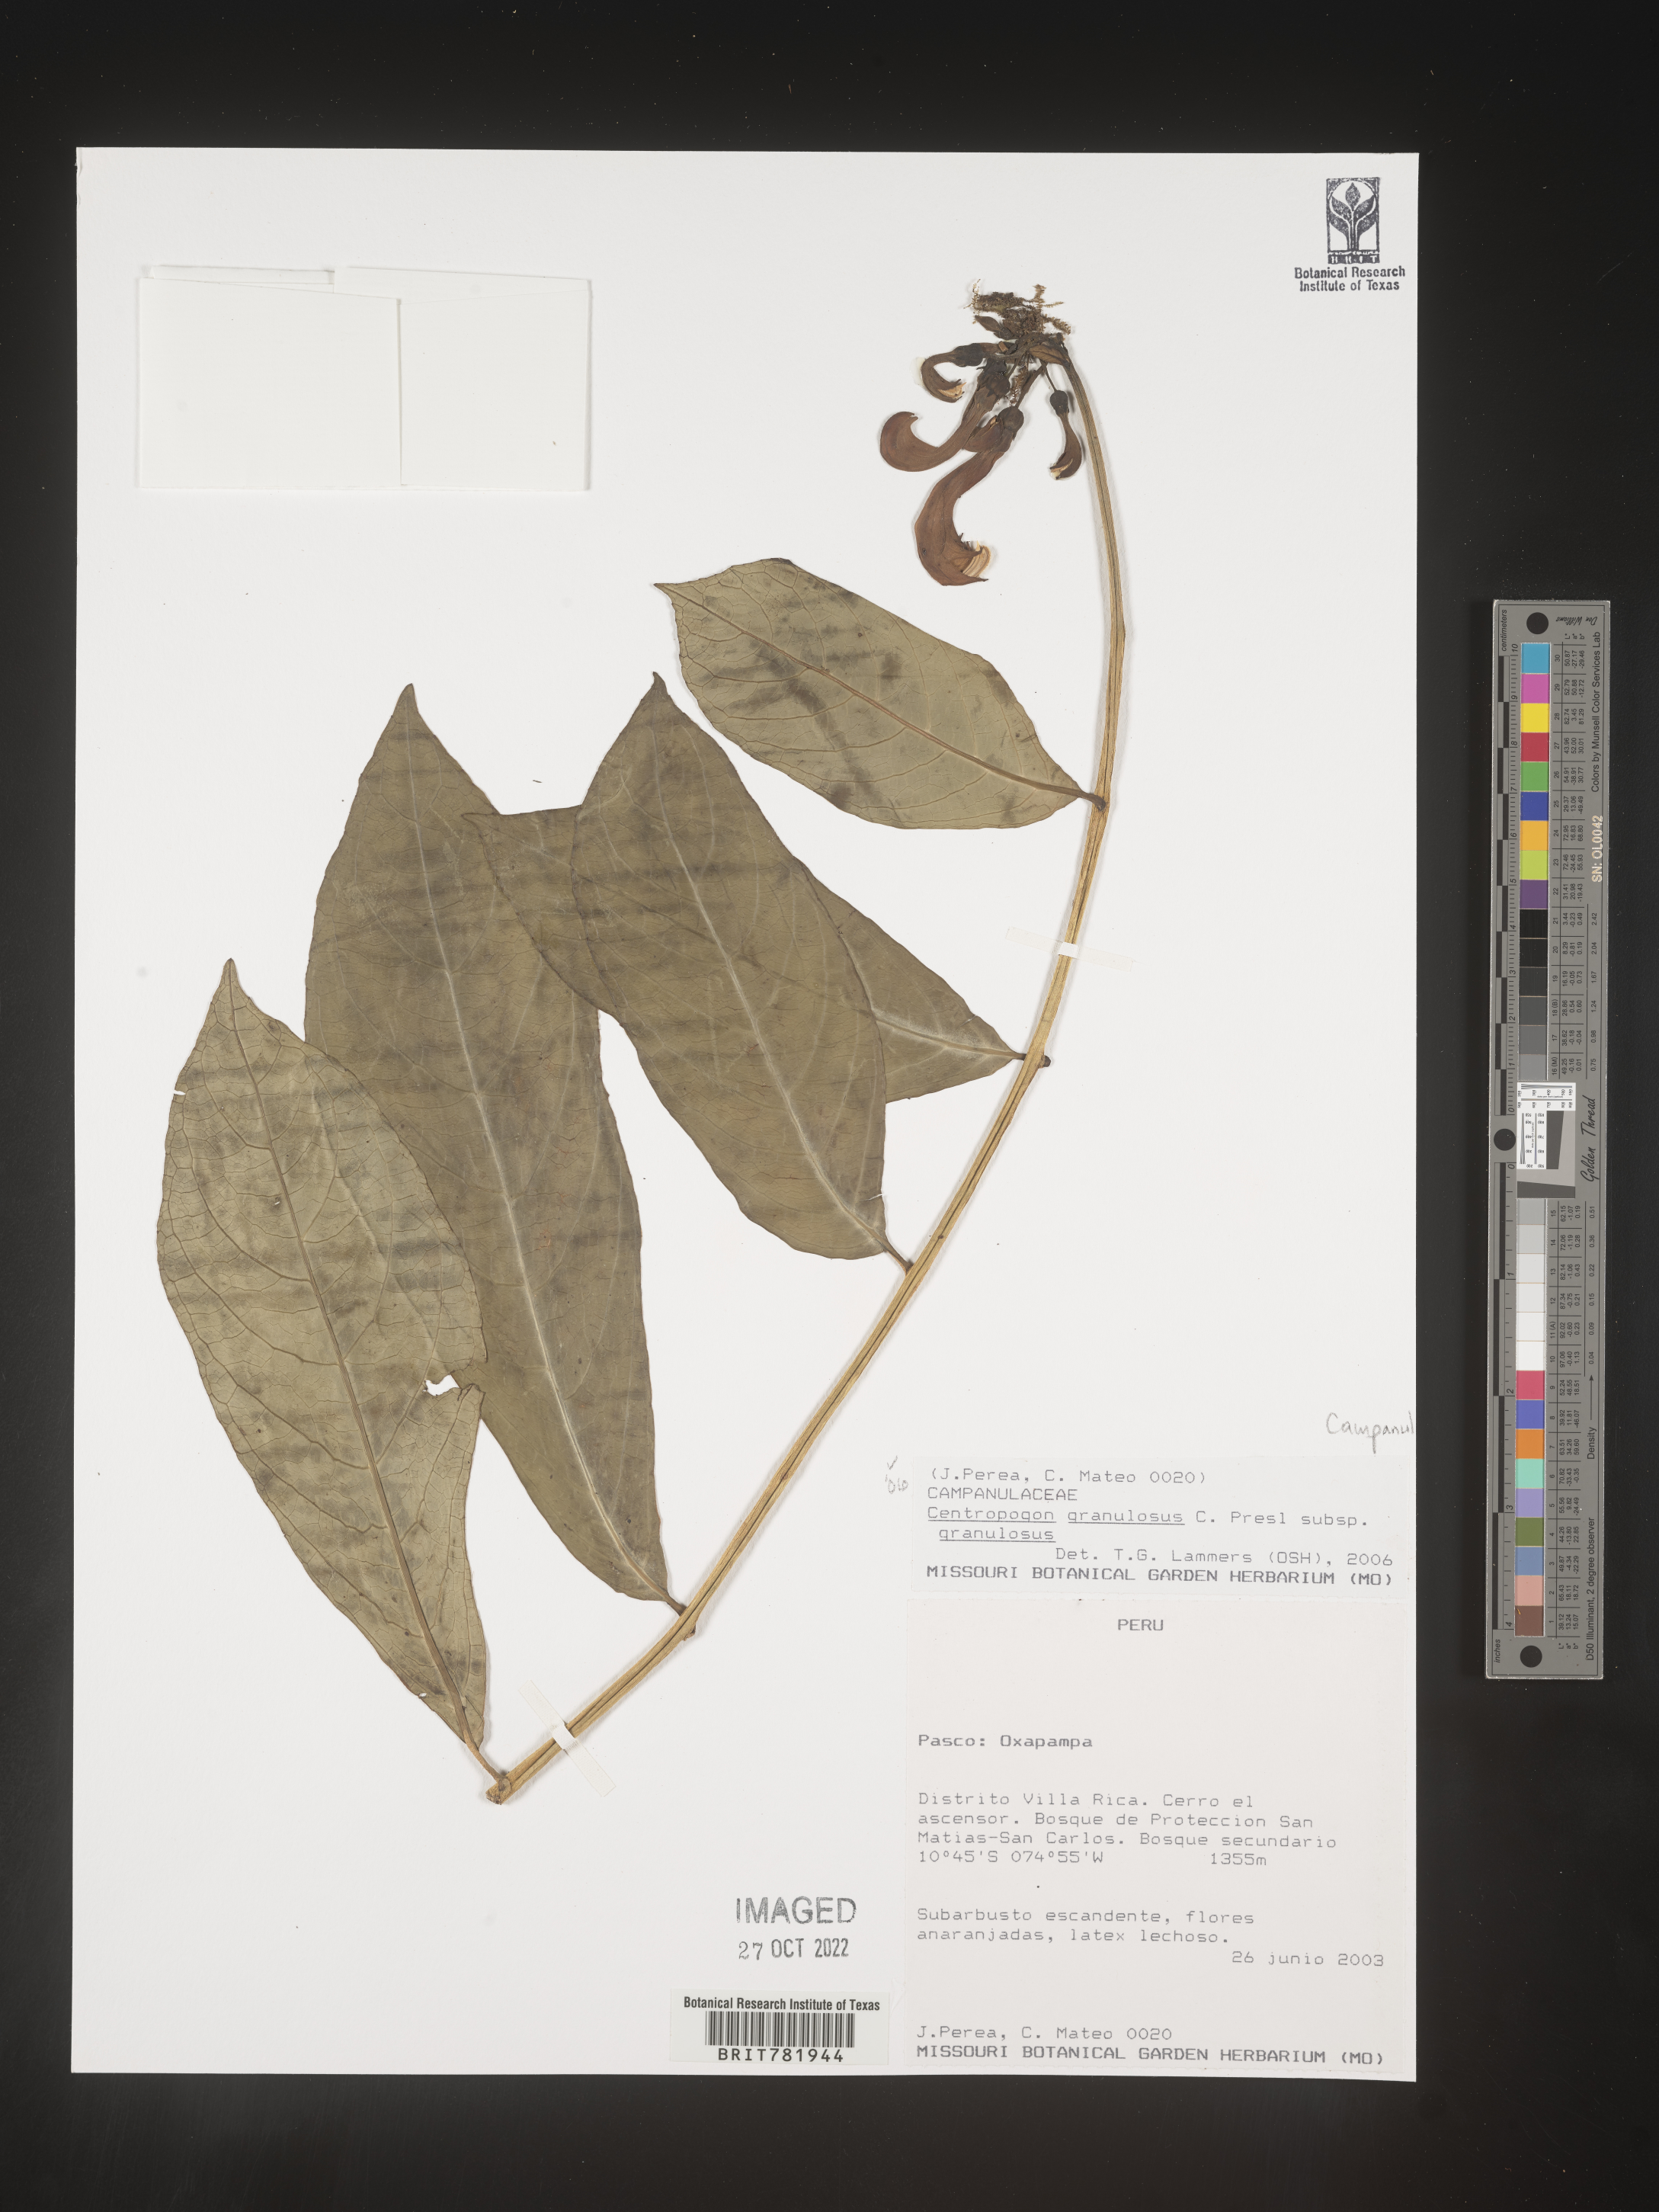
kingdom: Plantae
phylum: Tracheophyta
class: Magnoliopsida
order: Asterales
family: Campanulaceae
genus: Centropogon
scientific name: Centropogon
